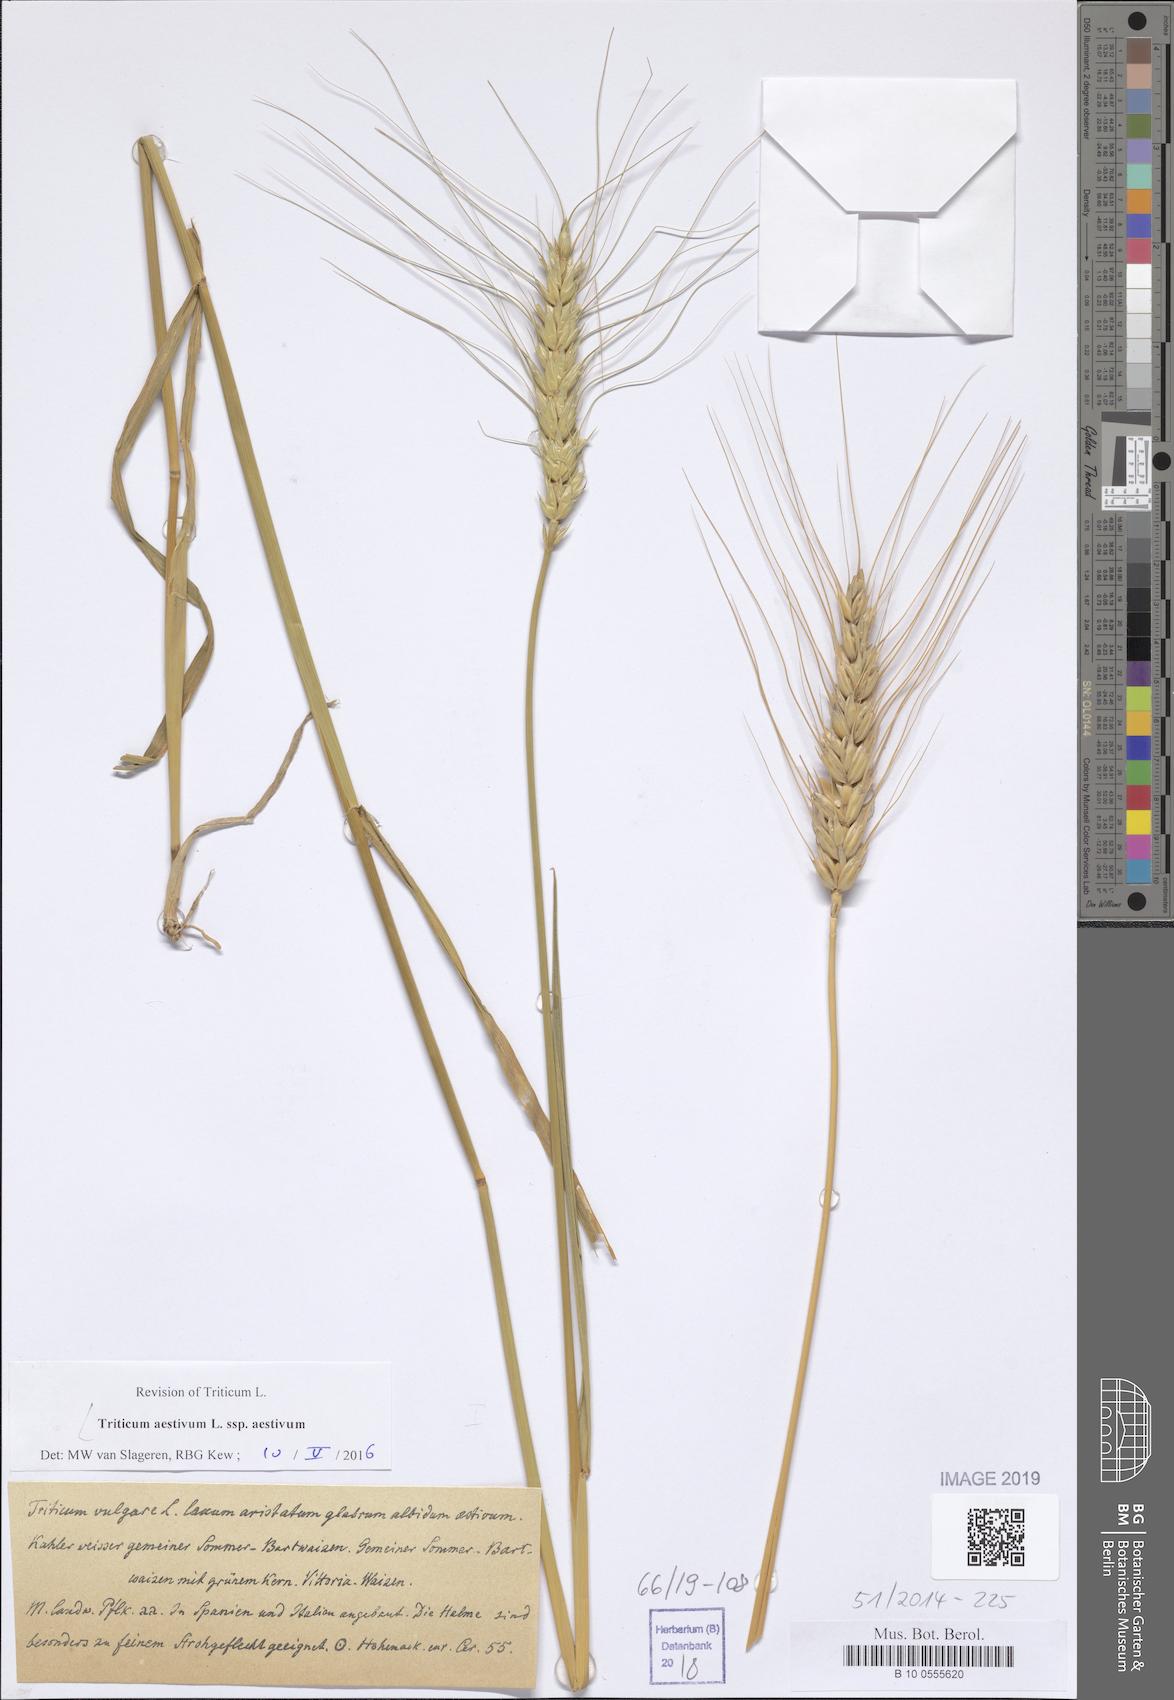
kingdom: Plantae
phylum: Tracheophyta
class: Liliopsida
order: Poales
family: Poaceae
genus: Triticum
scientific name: Triticum aestivum
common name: Common wheat
